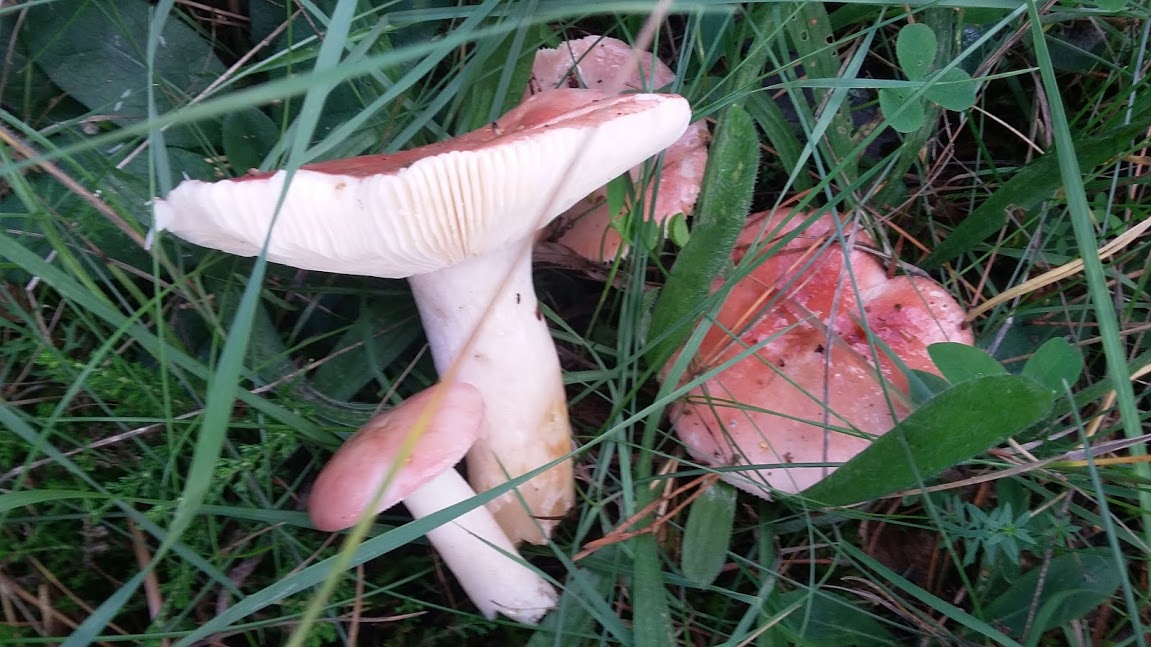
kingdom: Fungi
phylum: Basidiomycota
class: Agaricomycetes
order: Russulales
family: Russulaceae
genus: Russula
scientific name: Russula sanguinea
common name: blodrød skørhat
